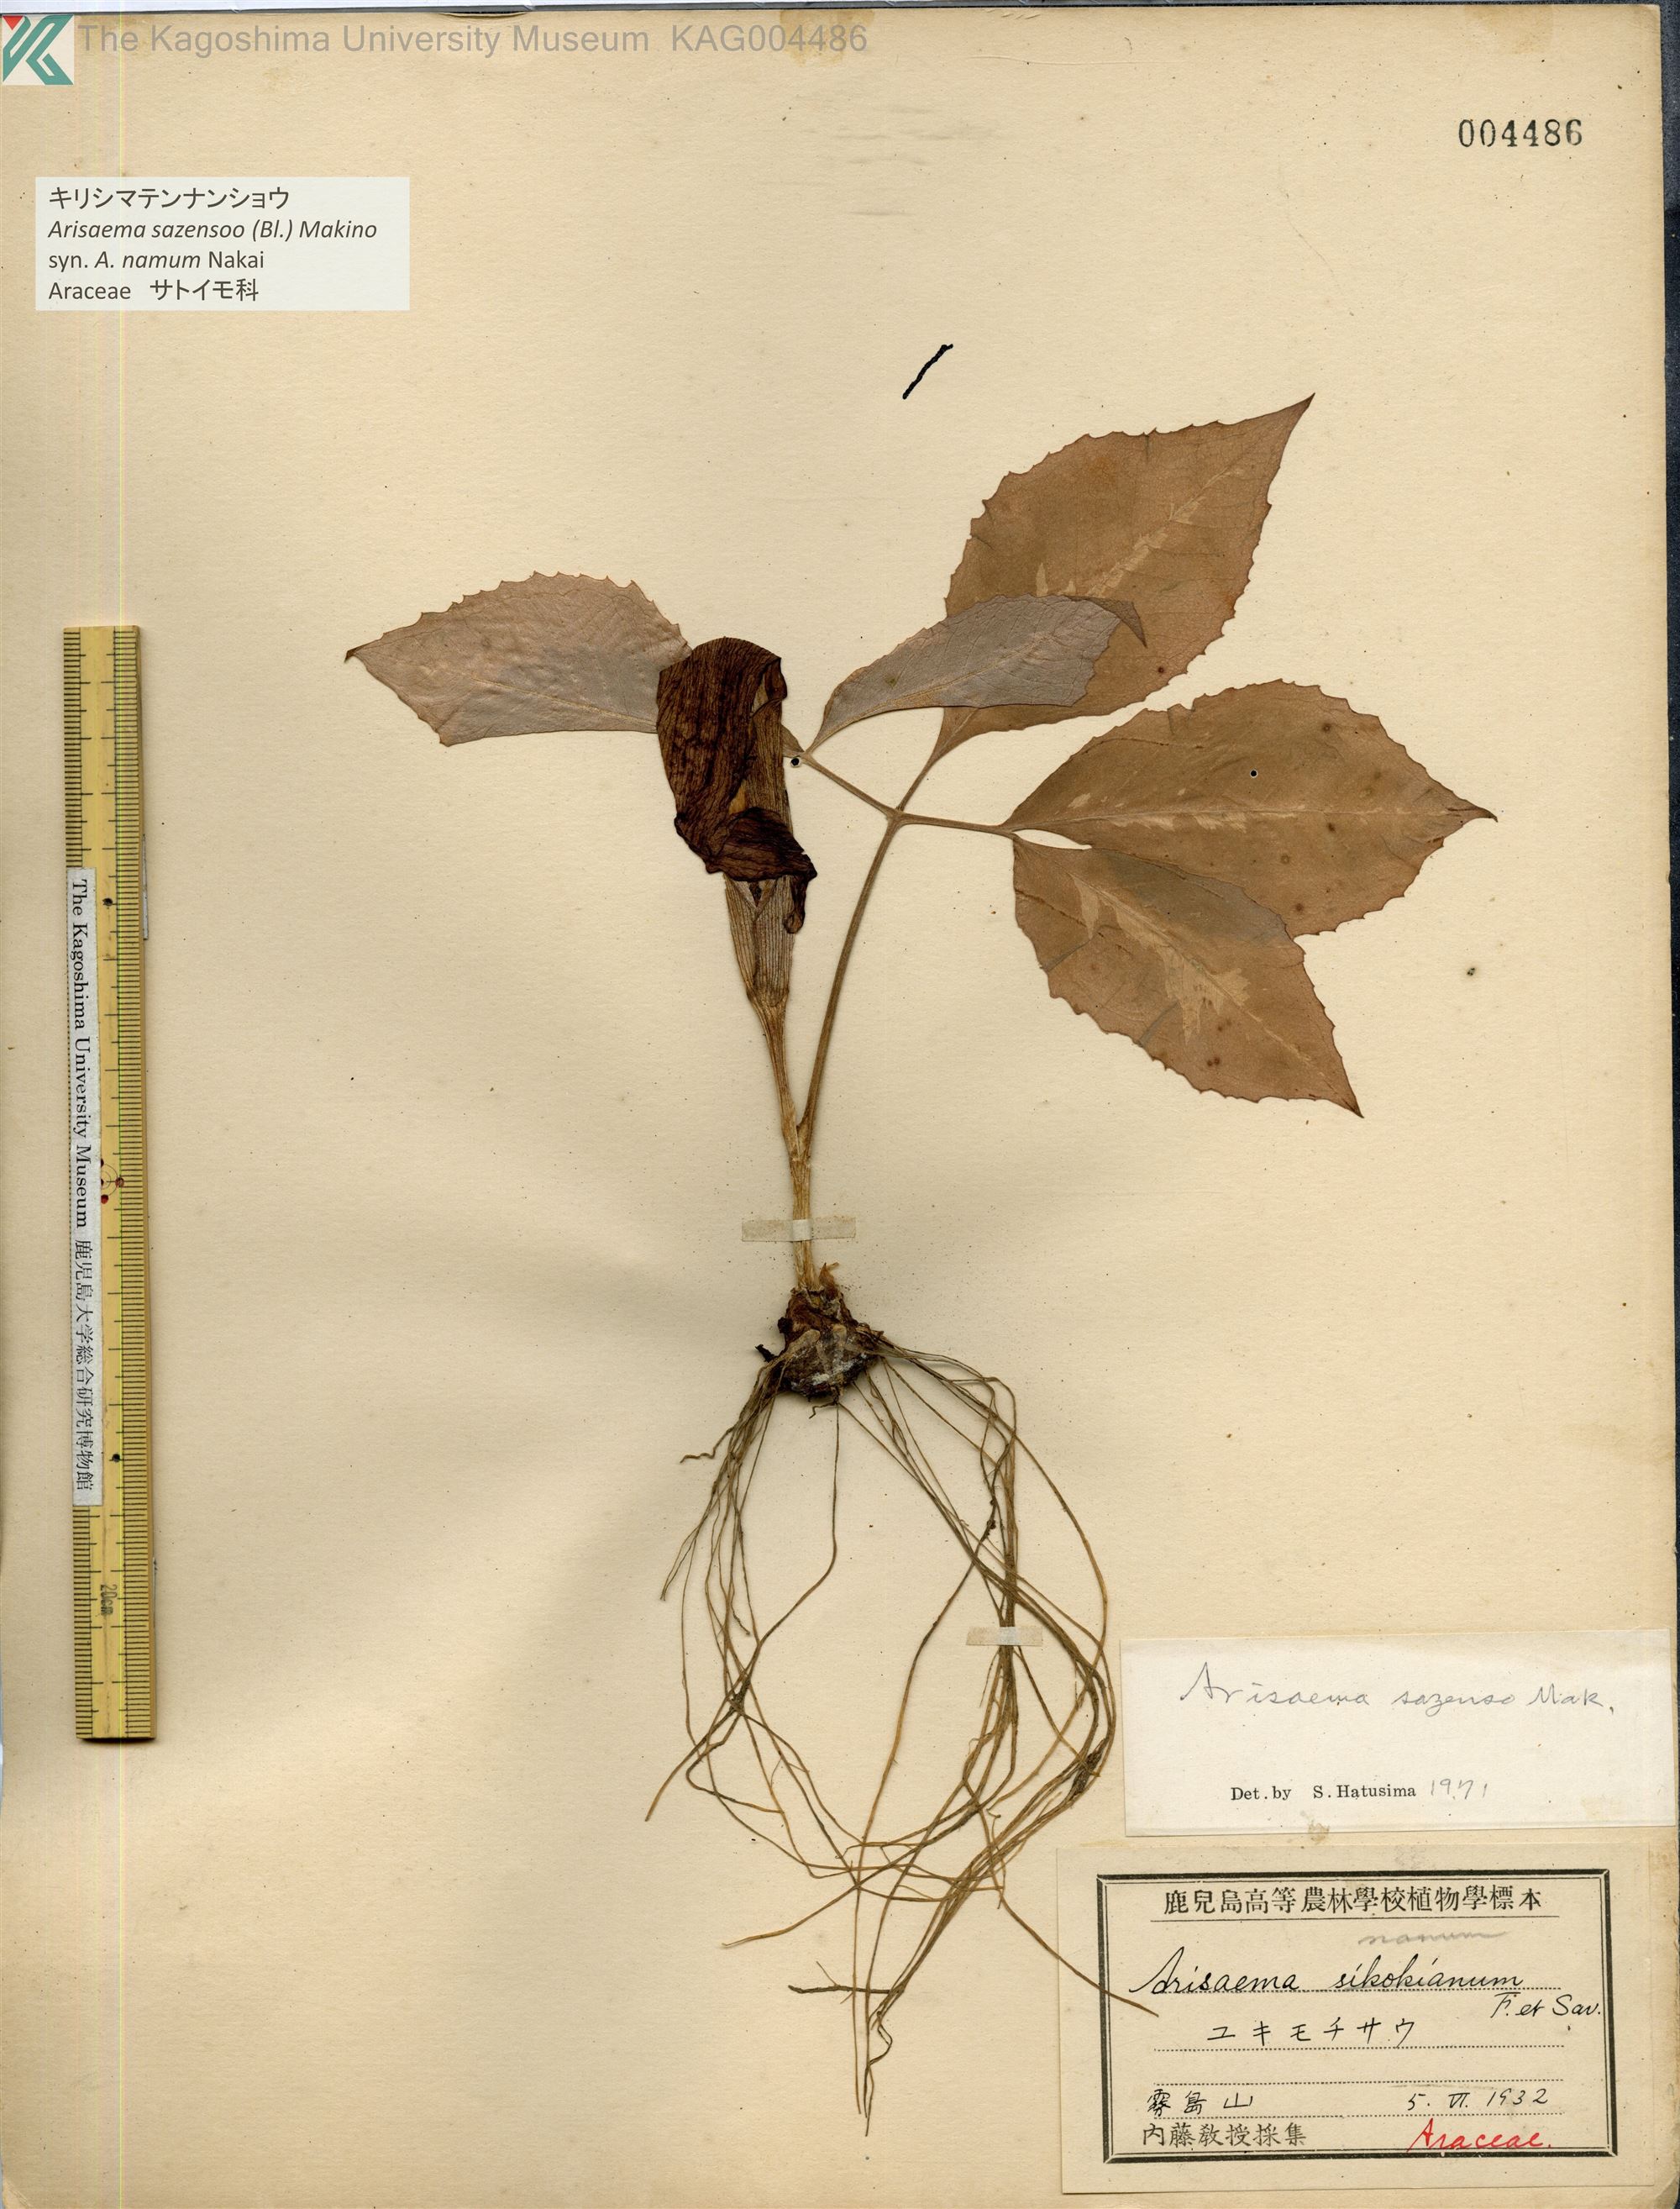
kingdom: Plantae
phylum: Tracheophyta
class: Liliopsida
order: Alismatales
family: Araceae
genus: Arisaema
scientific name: Arisaema sazensoo
